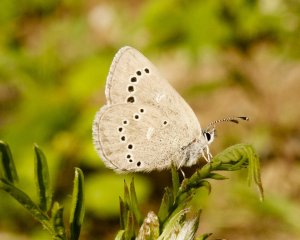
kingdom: Animalia
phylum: Arthropoda
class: Insecta
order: Lepidoptera
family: Lycaenidae
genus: Glaucopsyche
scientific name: Glaucopsyche lygdamus
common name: Silvery Blue
